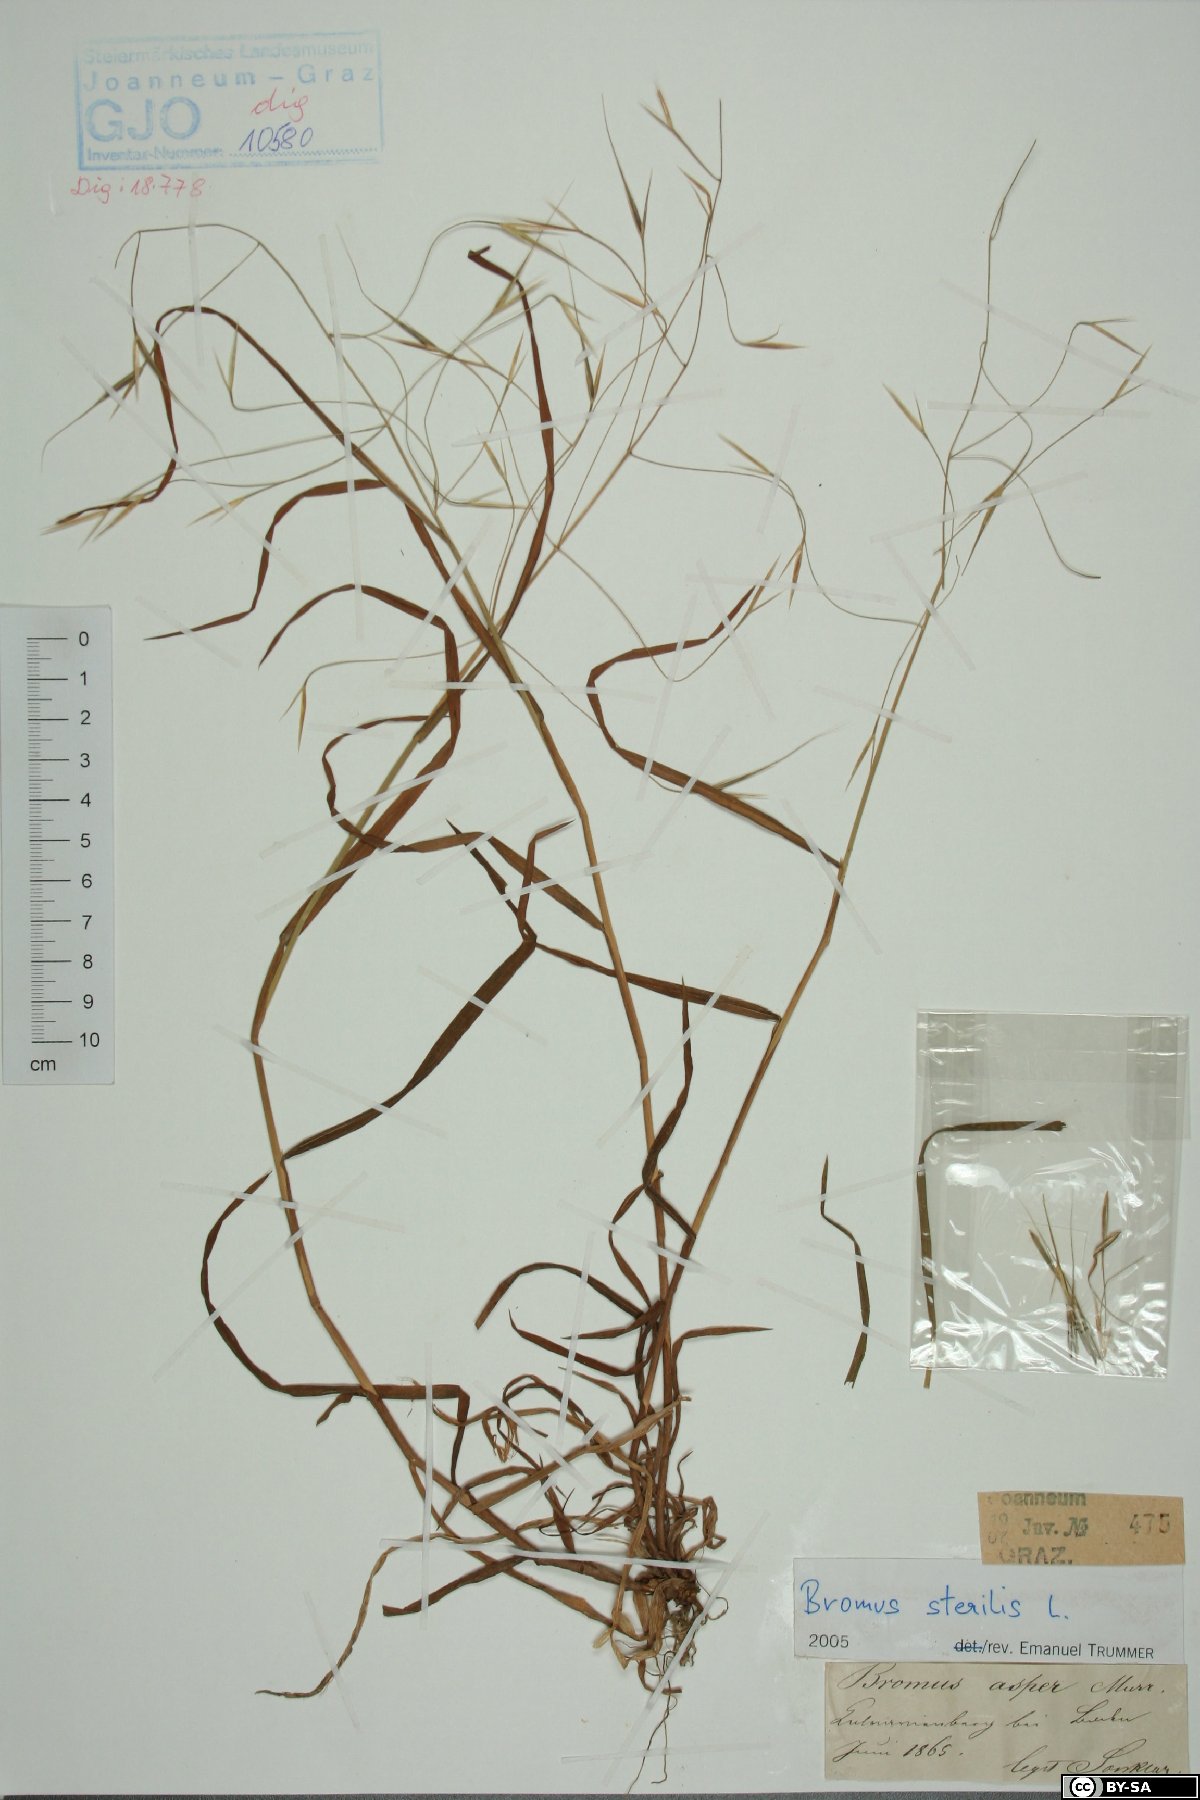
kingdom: Plantae
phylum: Tracheophyta
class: Liliopsida
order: Poales
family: Poaceae
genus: Bromus
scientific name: Bromus sterilis
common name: Poverty brome
